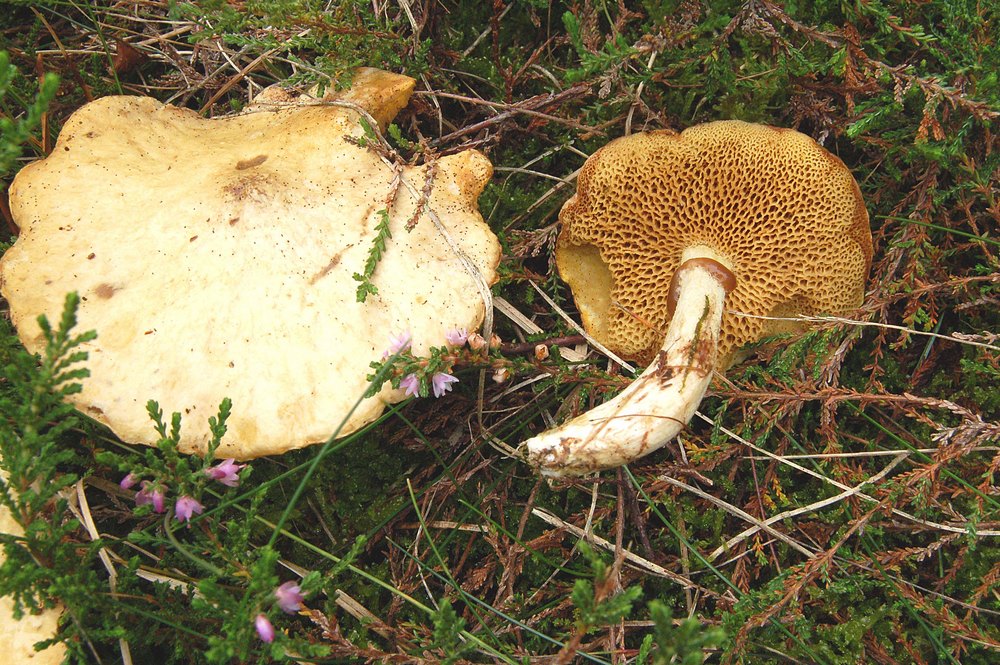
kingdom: Fungi
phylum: Basidiomycota
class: Agaricomycetes
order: Boletales
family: Suillaceae
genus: Suillus
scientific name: Suillus flavidus
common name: mose-slimrørhat
